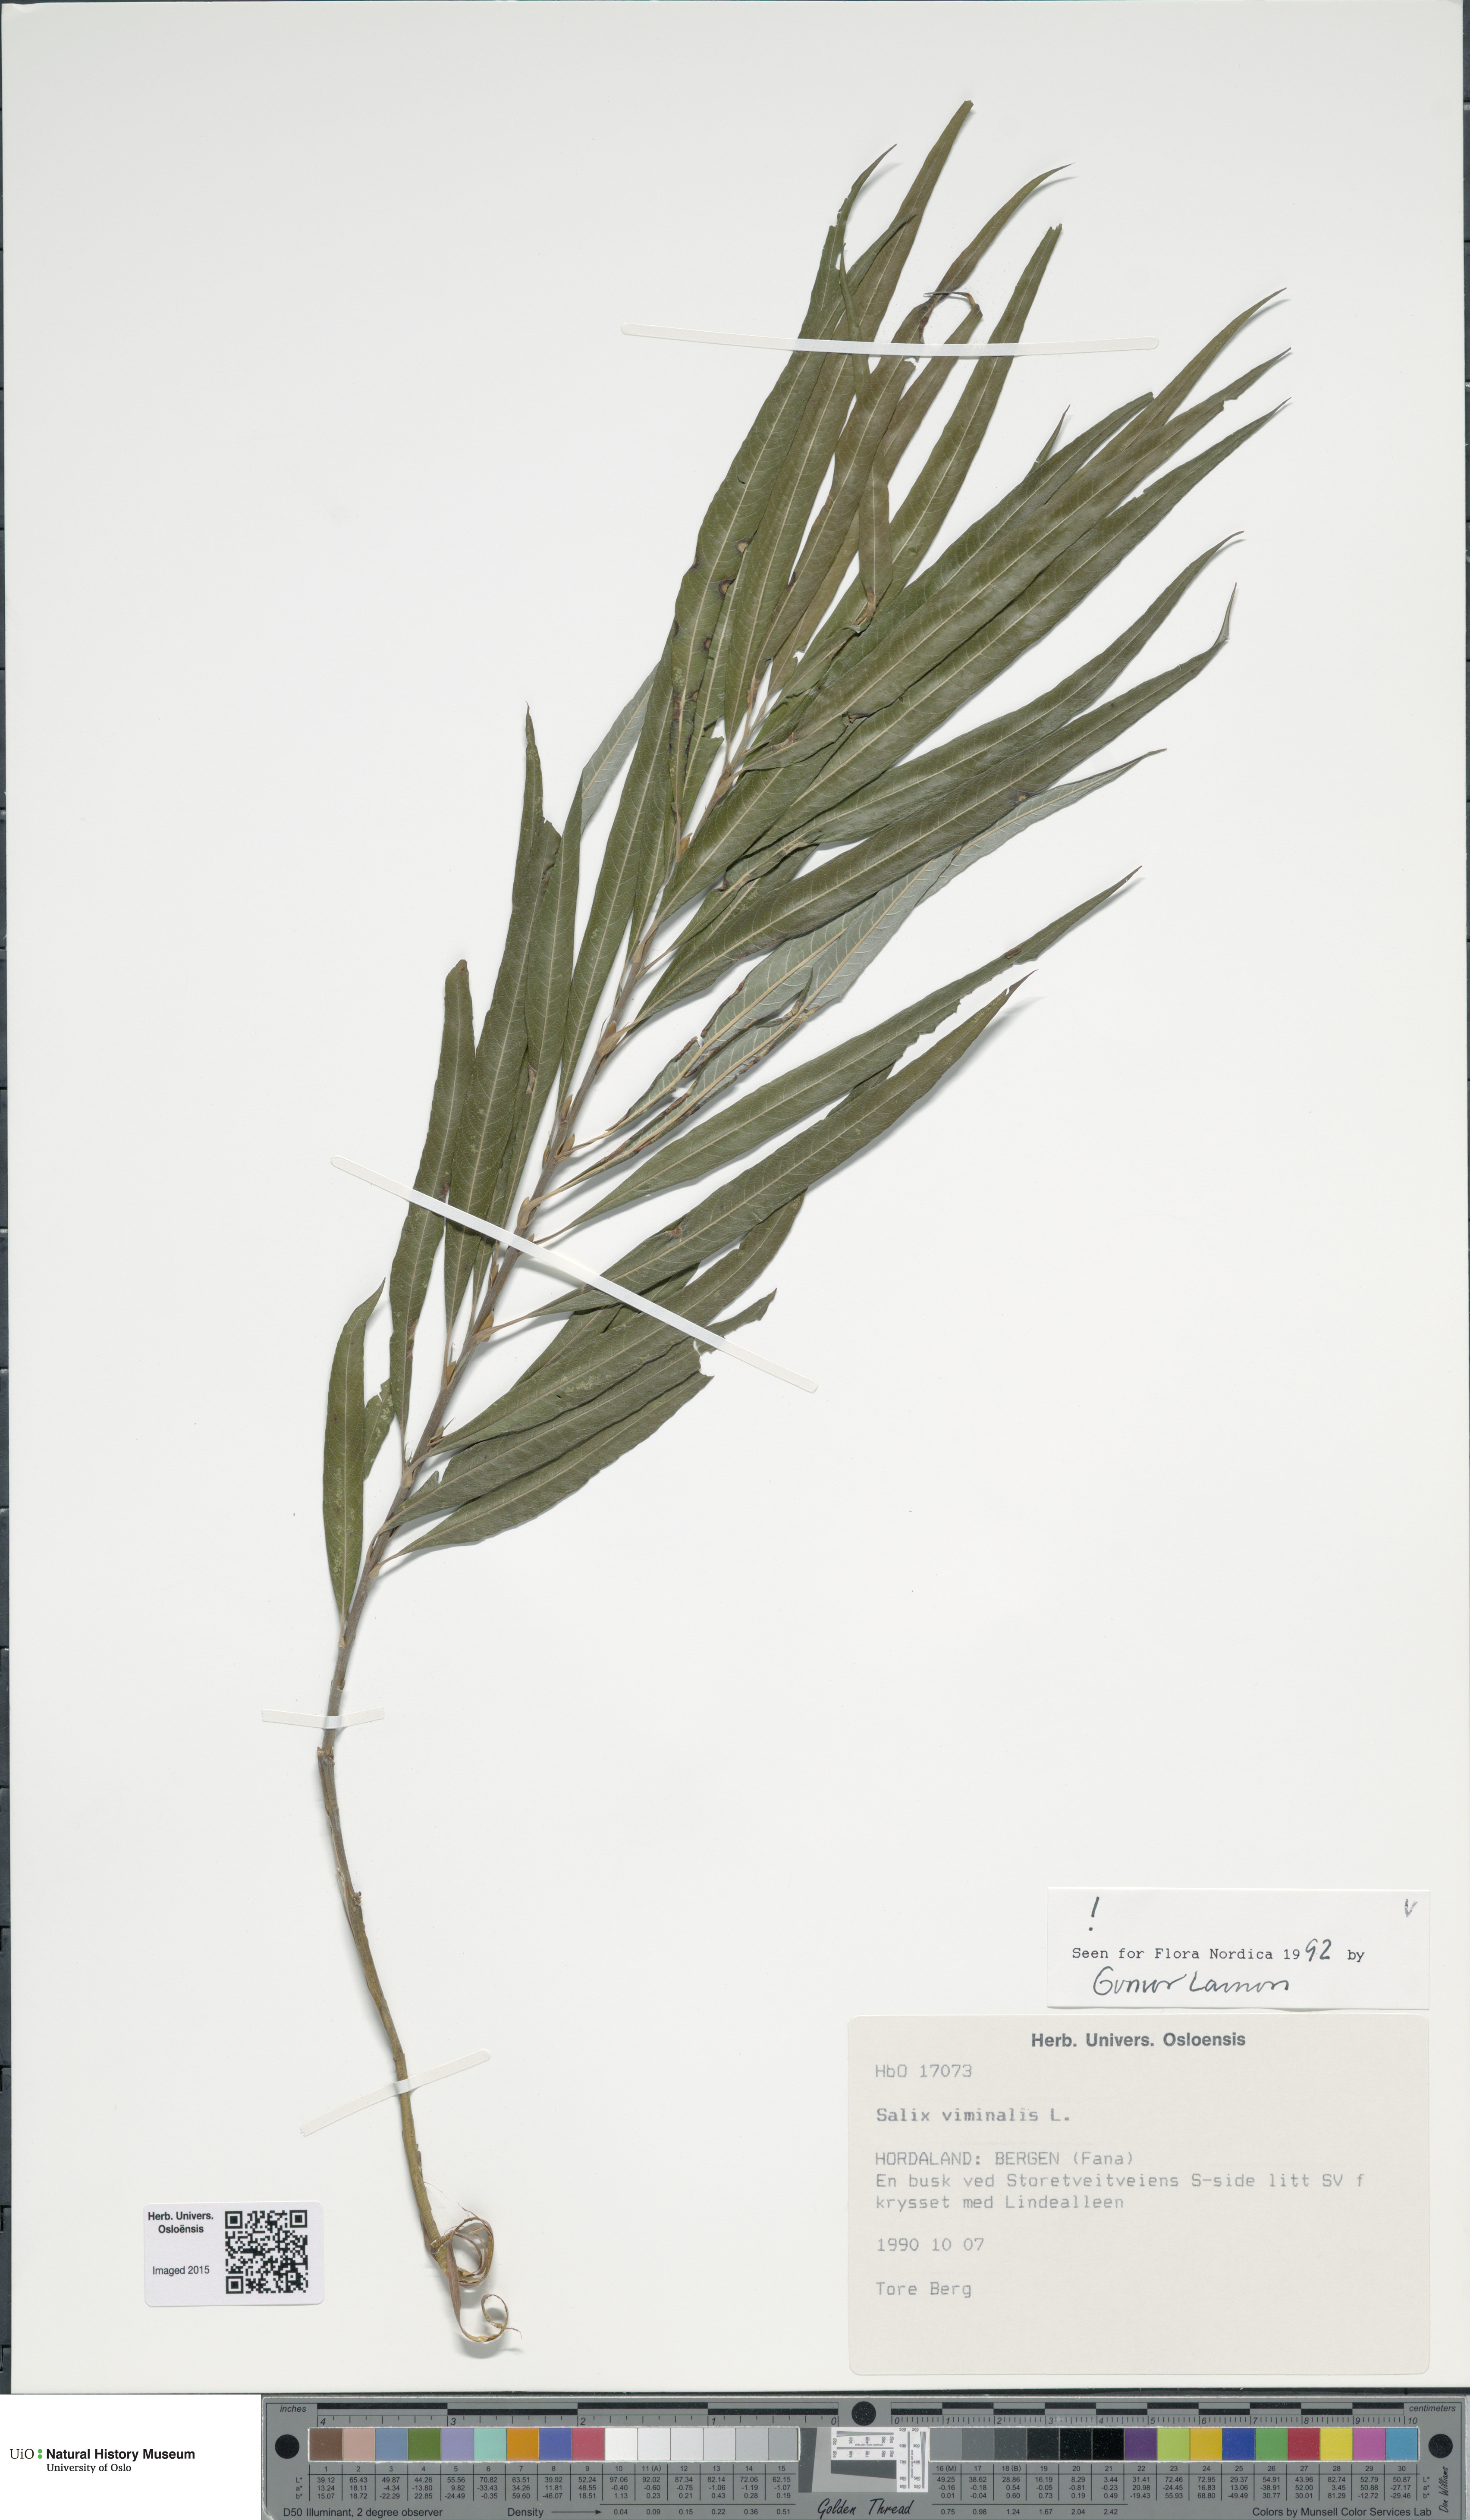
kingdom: Plantae
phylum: Tracheophyta
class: Magnoliopsida
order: Malpighiales
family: Salicaceae
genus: Salix
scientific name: Salix viminalis
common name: Osier
